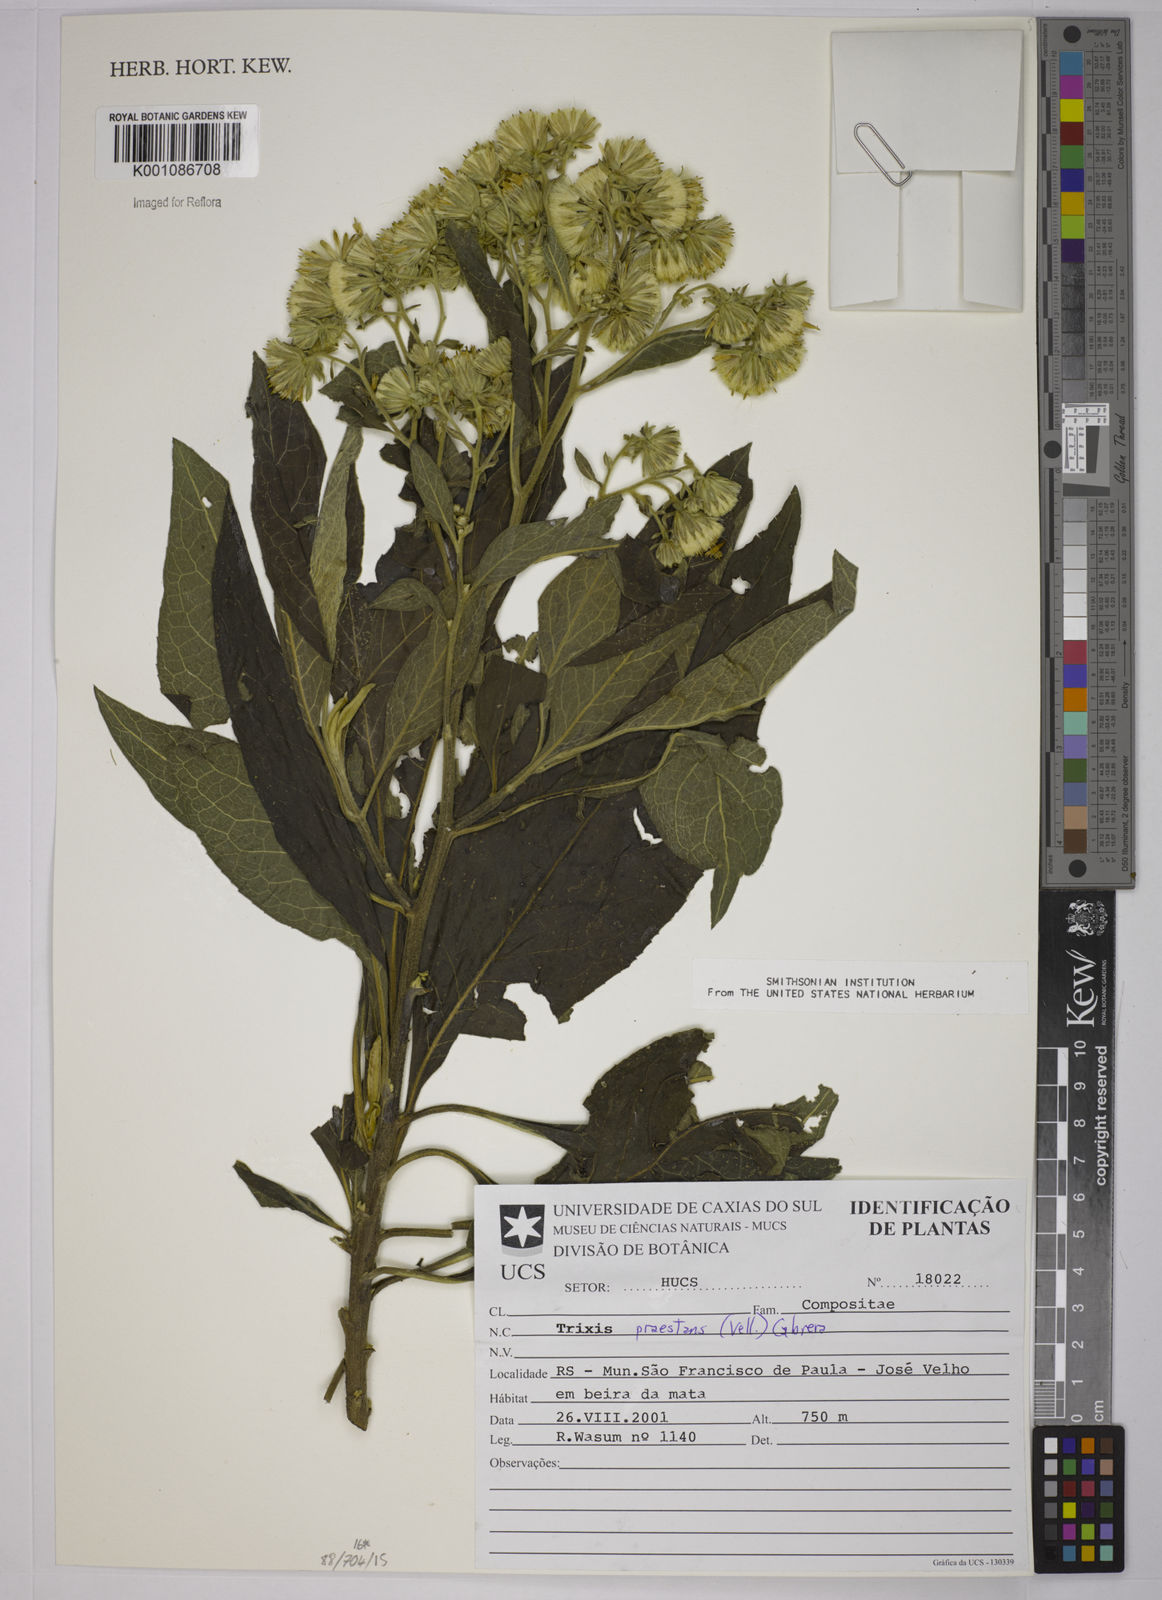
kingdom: Plantae
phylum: Tracheophyta
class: Magnoliopsida
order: Asterales
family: Asteraceae
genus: Trixis
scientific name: Trixis praestans
